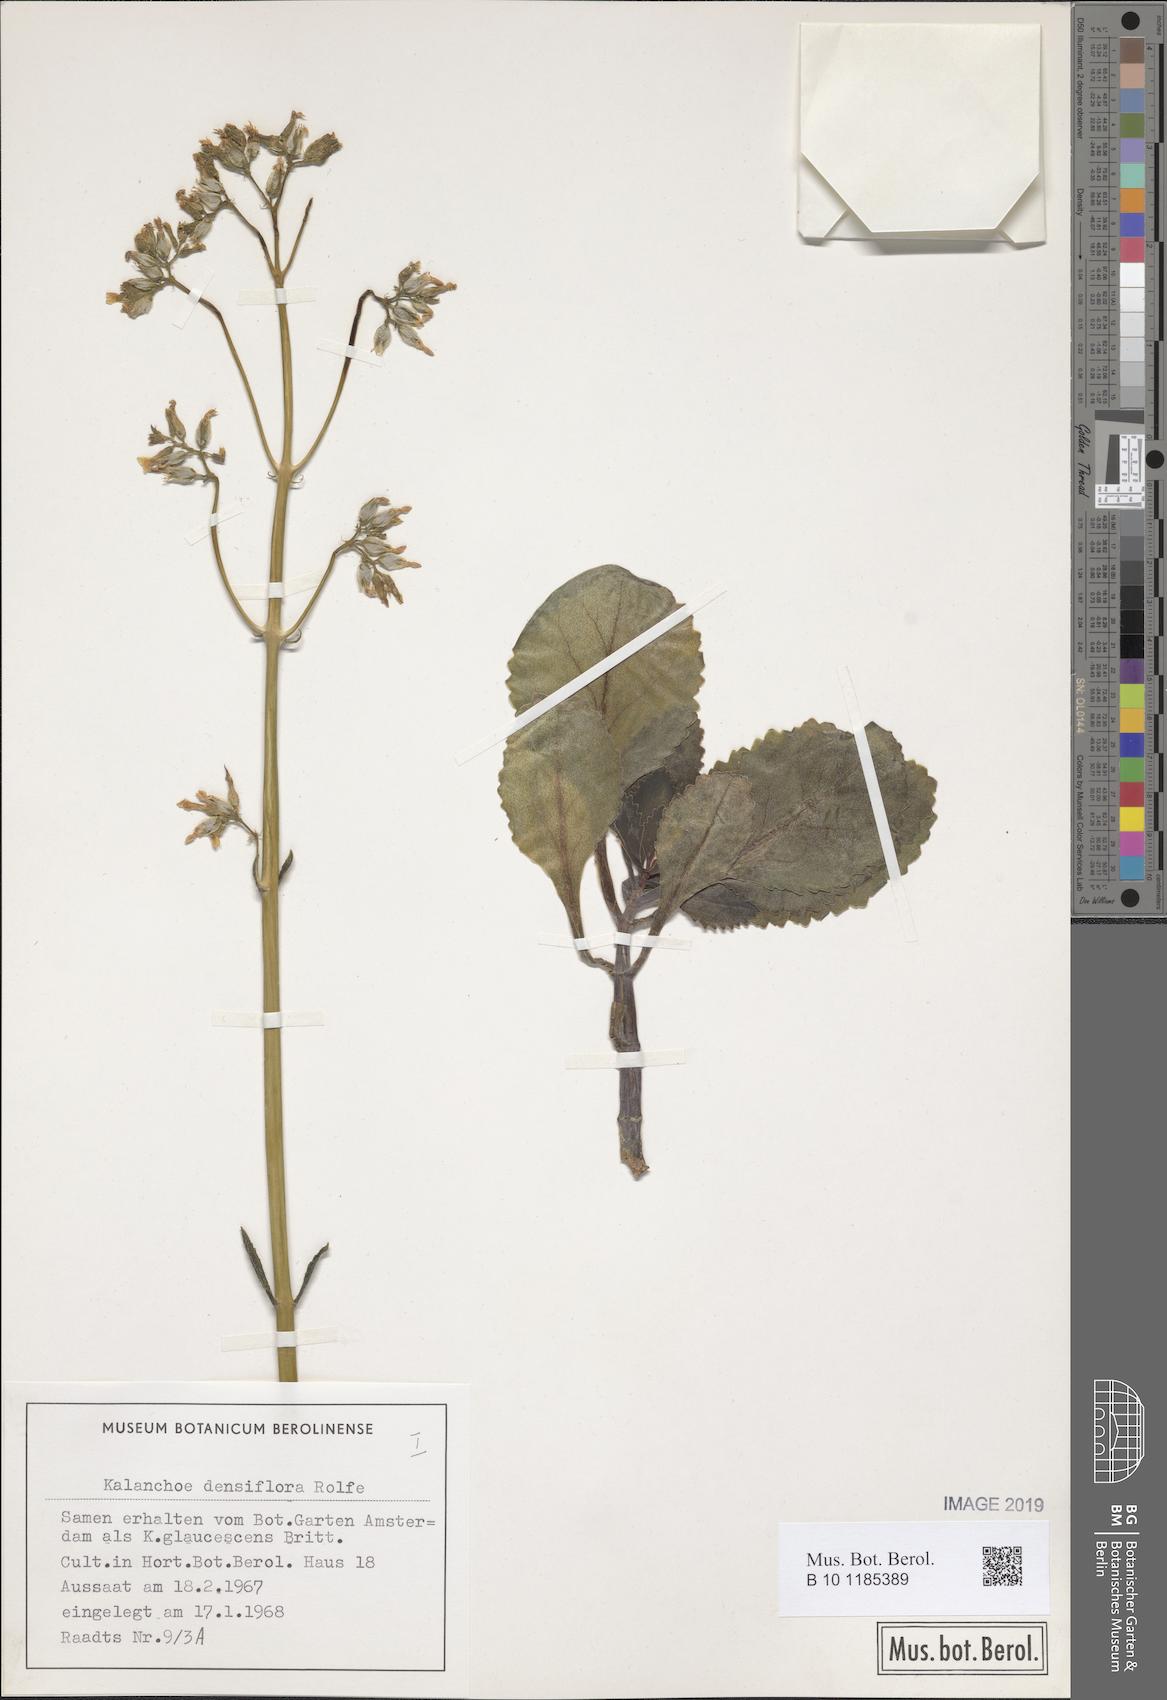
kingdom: Plantae
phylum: Tracheophyta
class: Magnoliopsida
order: Saxifragales
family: Crassulaceae
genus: Kalanchoe
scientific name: Kalanchoe densiflora
